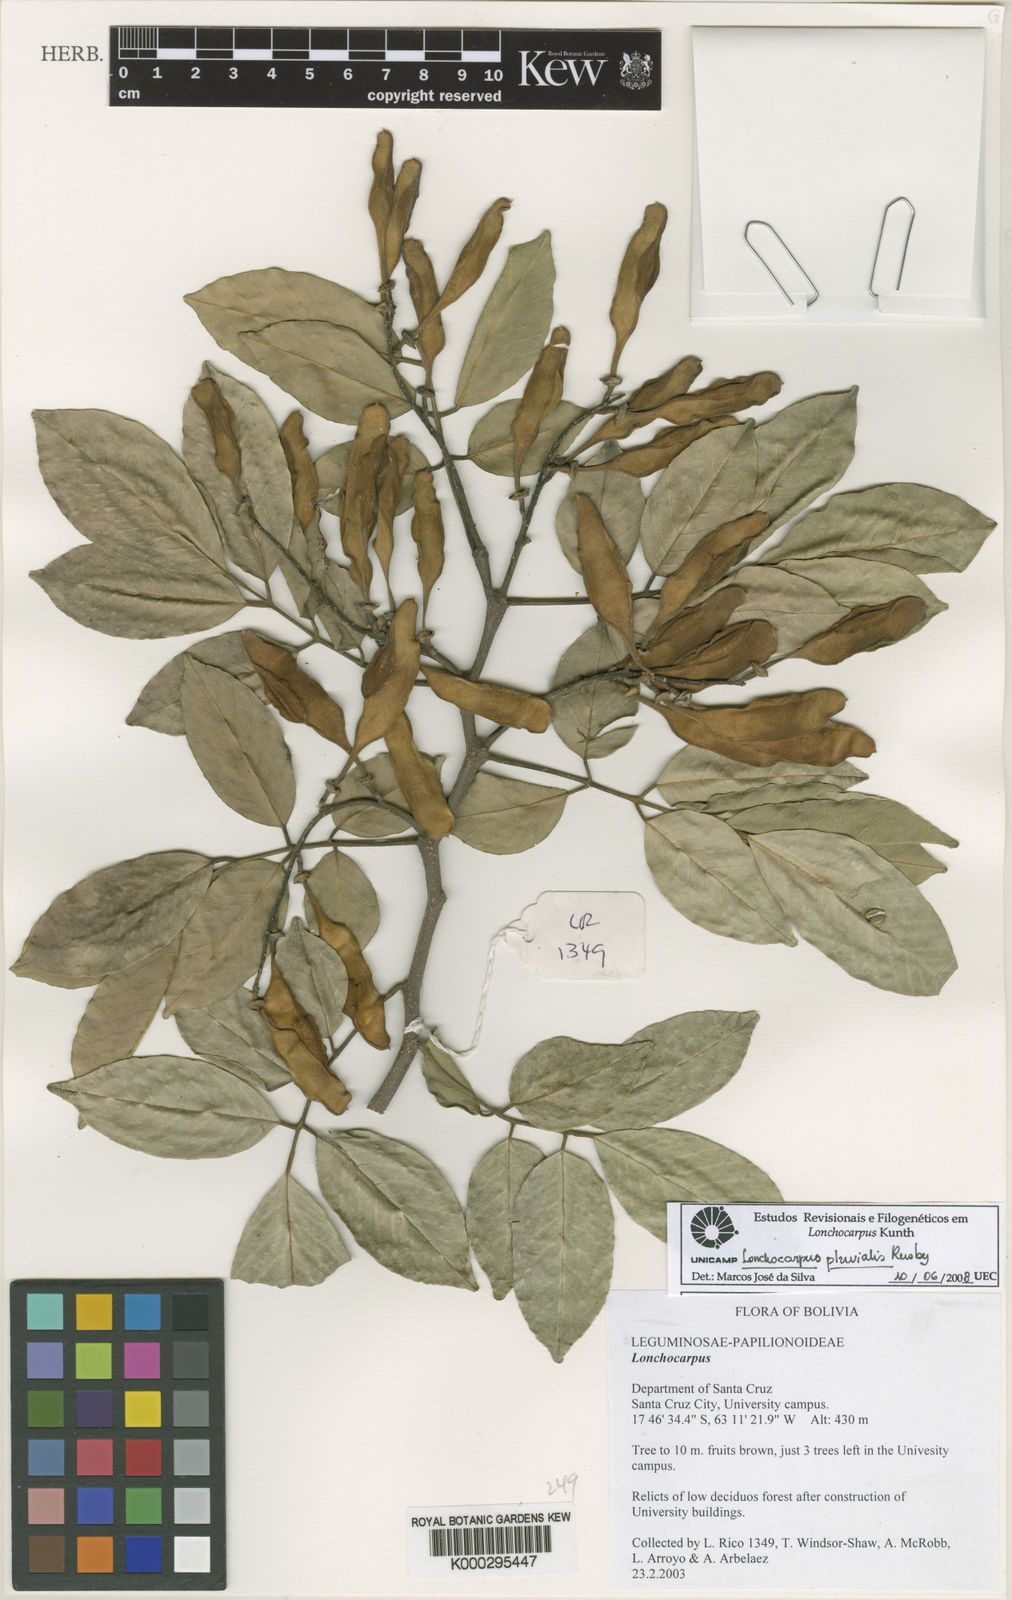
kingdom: Plantae
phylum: Tracheophyta
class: Magnoliopsida
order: Fabales
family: Fabaceae
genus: Lonchocarpus
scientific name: Lonchocarpus pluvialis
